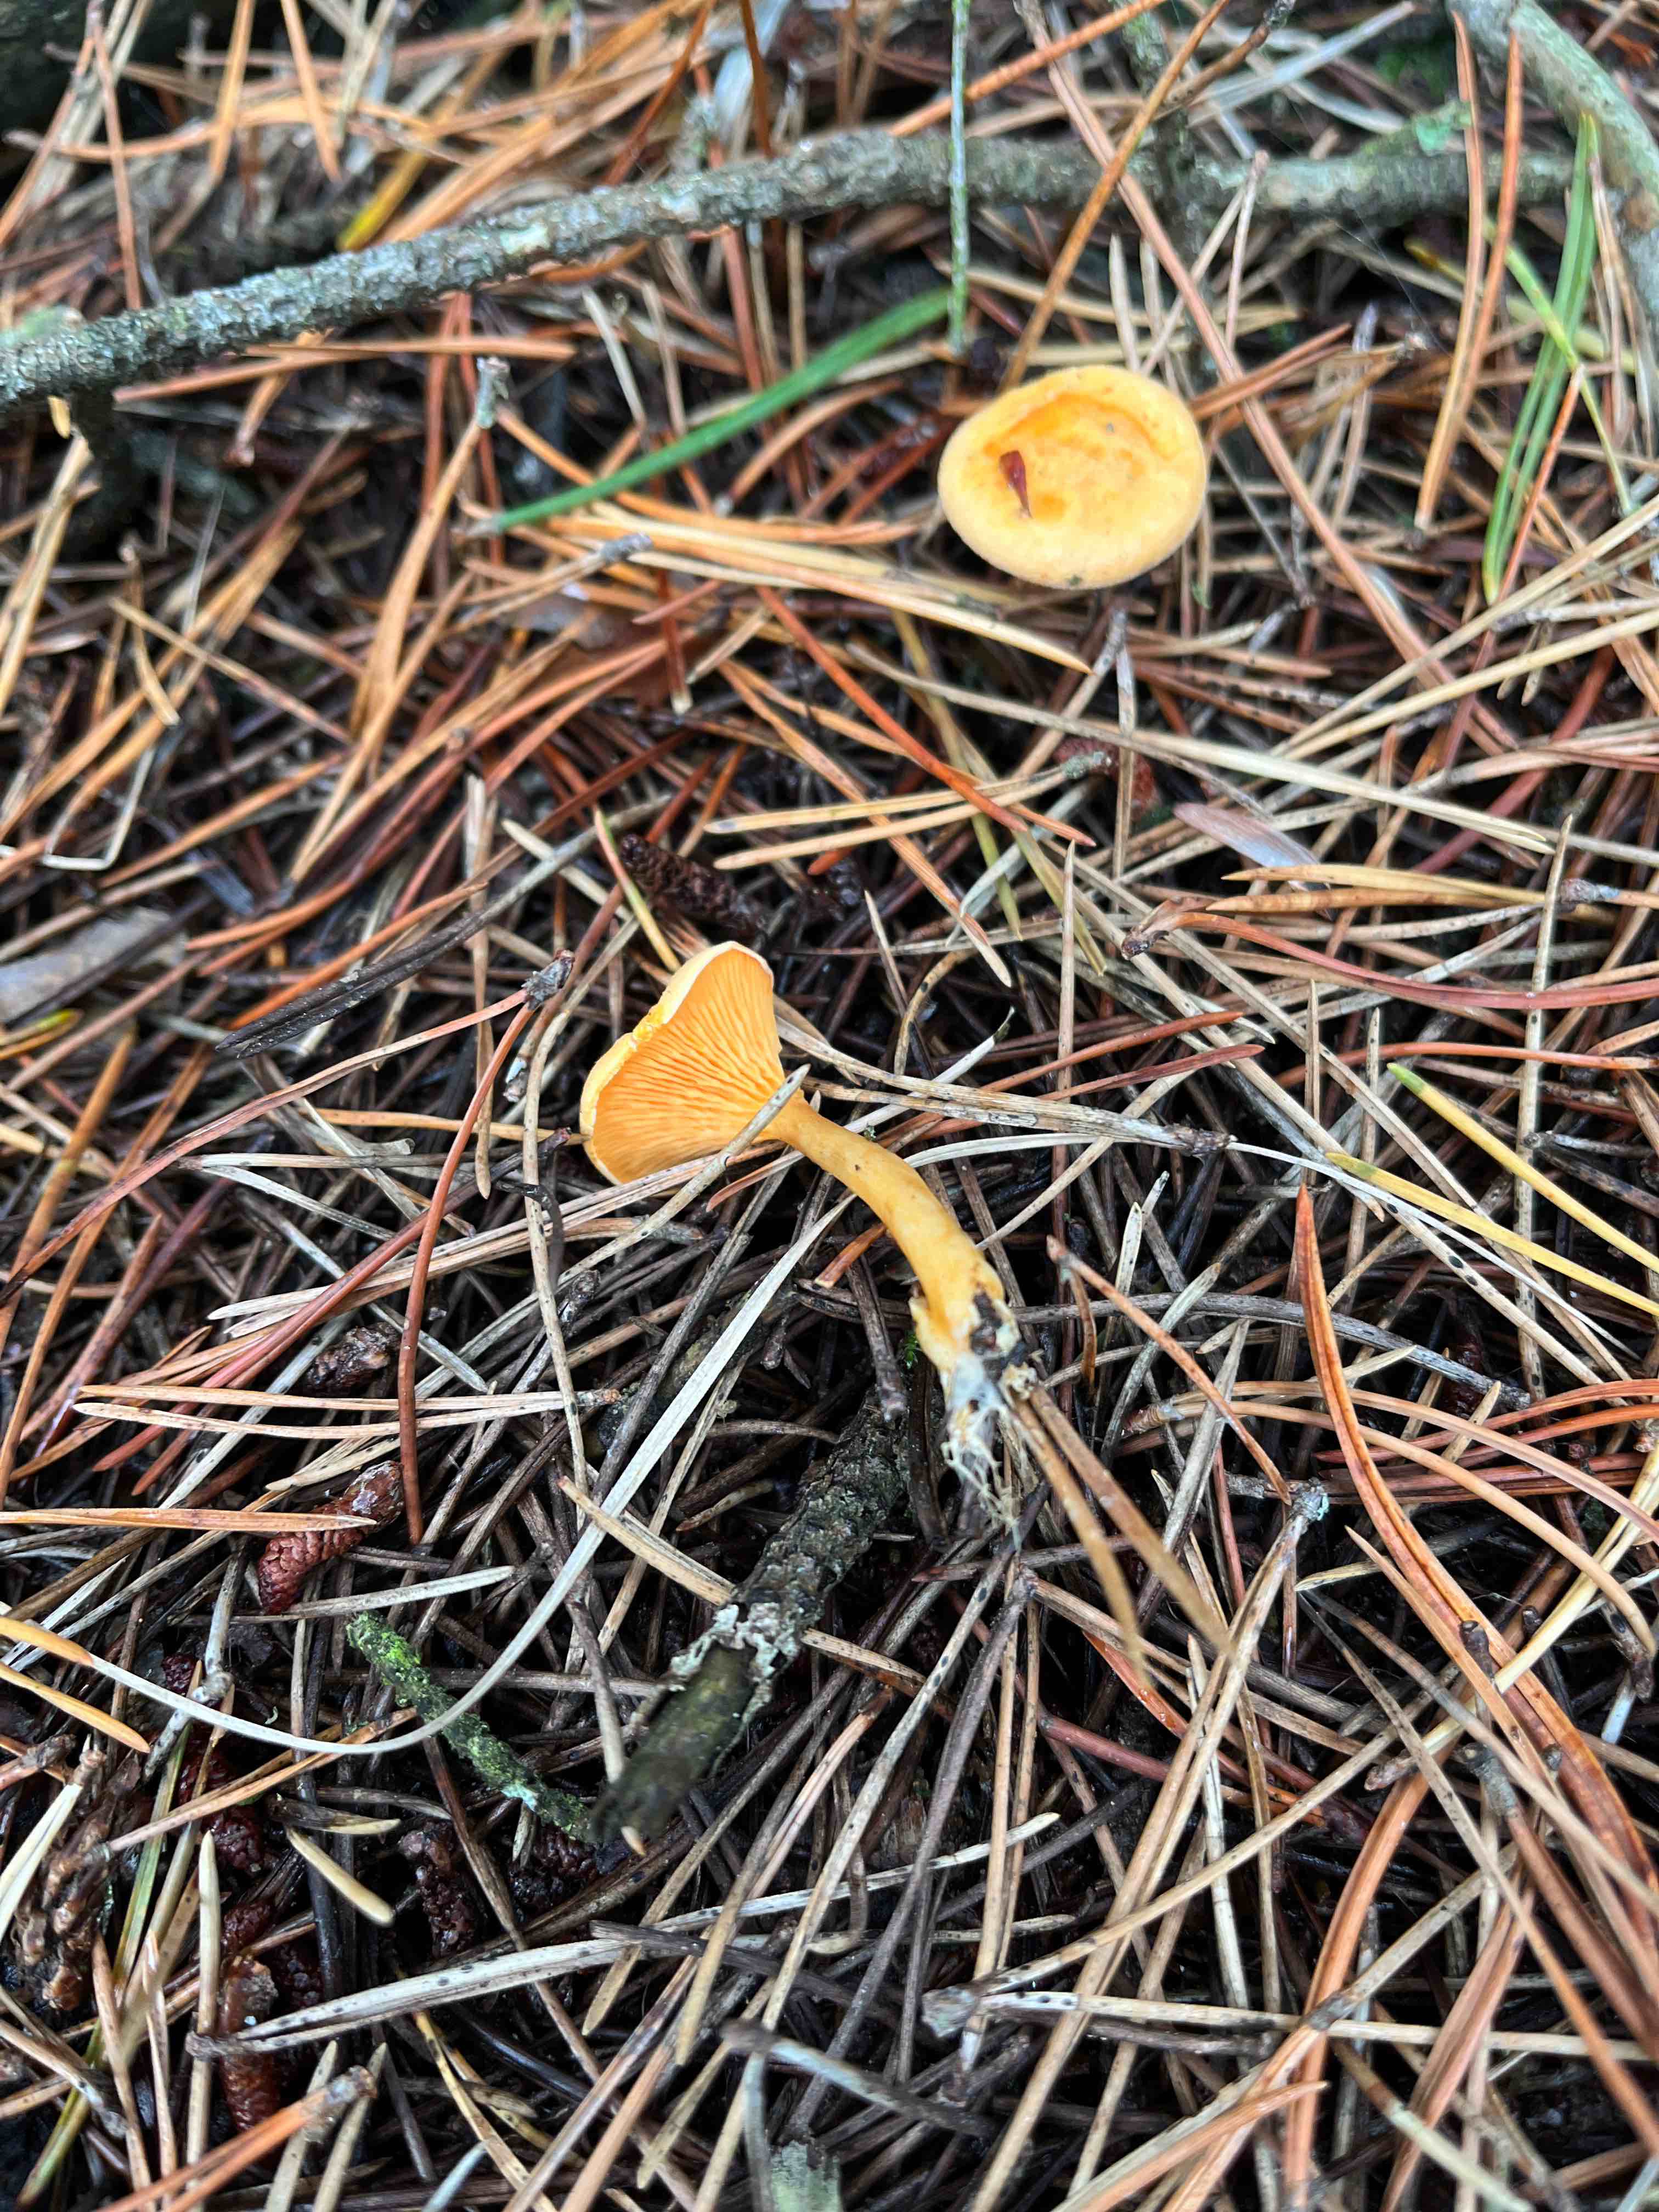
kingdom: Fungi
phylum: Basidiomycota
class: Agaricomycetes
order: Boletales
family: Hygrophoropsidaceae
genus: Hygrophoropsis
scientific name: Hygrophoropsis aurantiaca
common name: almindelig orangekantarel
